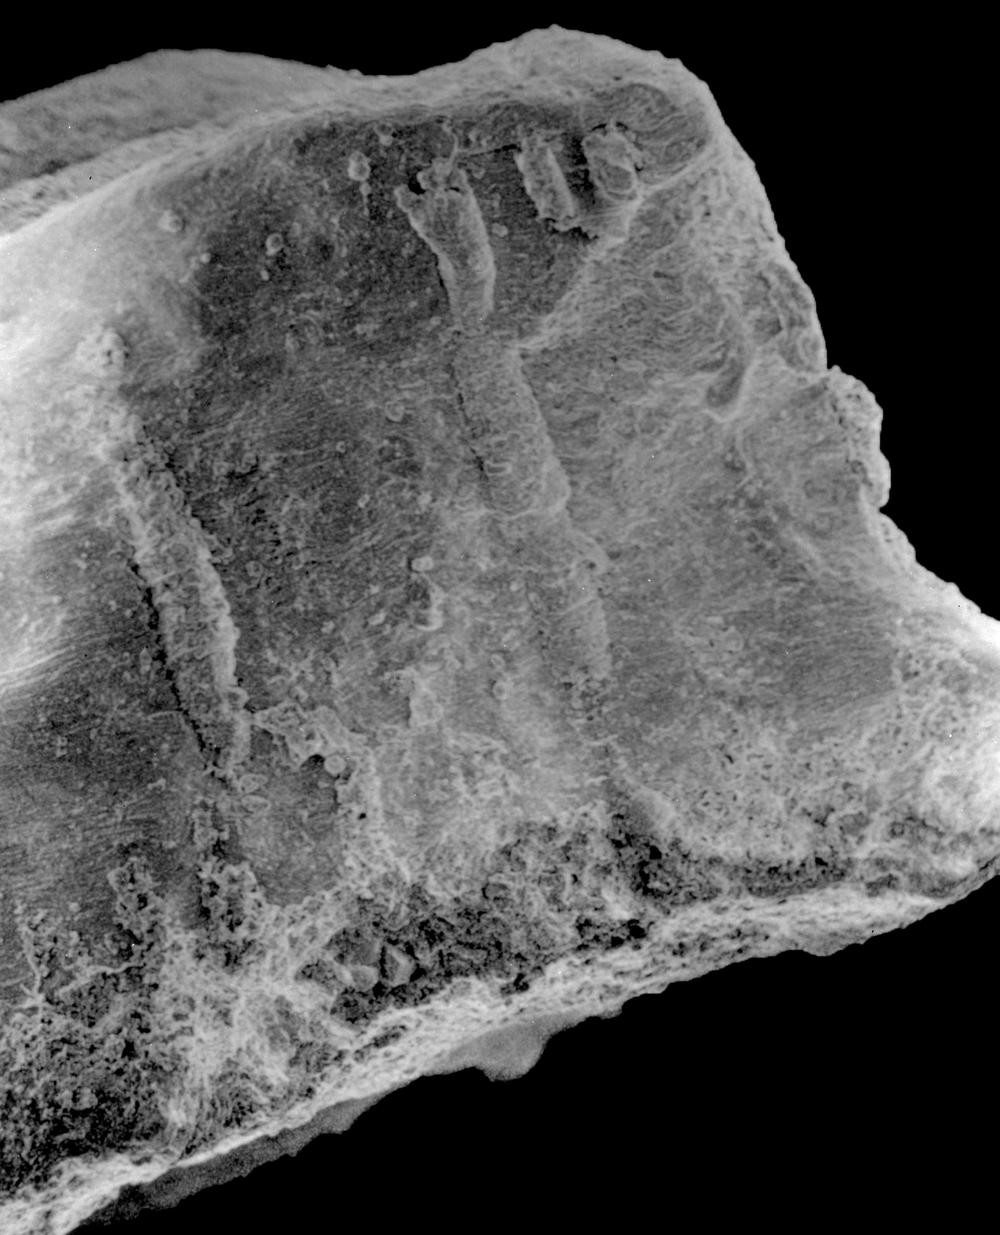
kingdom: Animalia
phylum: Brachiopoda
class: Rhynchonellata
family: Linoporellidae
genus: Laticrura
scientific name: Laticrura
